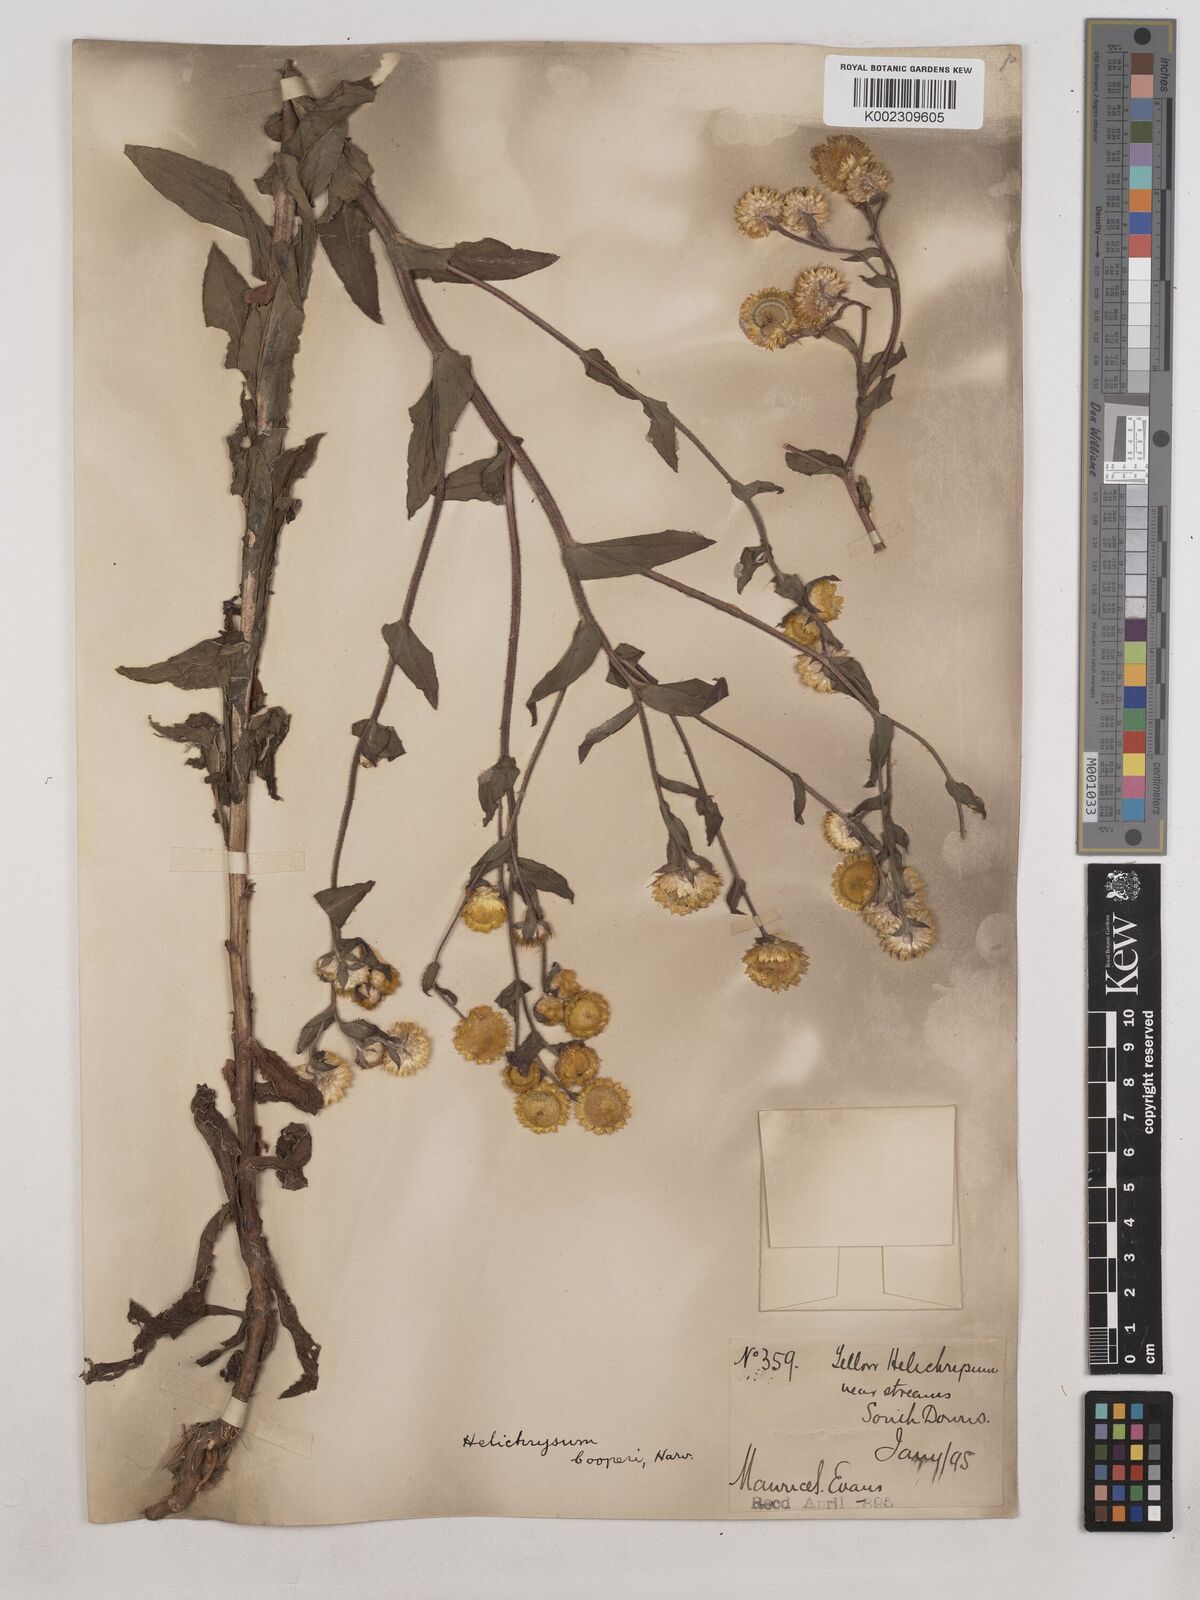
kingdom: Plantae
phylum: Tracheophyta
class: Magnoliopsida
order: Asterales
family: Asteraceae
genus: Helichrysum
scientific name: Helichrysum cooperi
